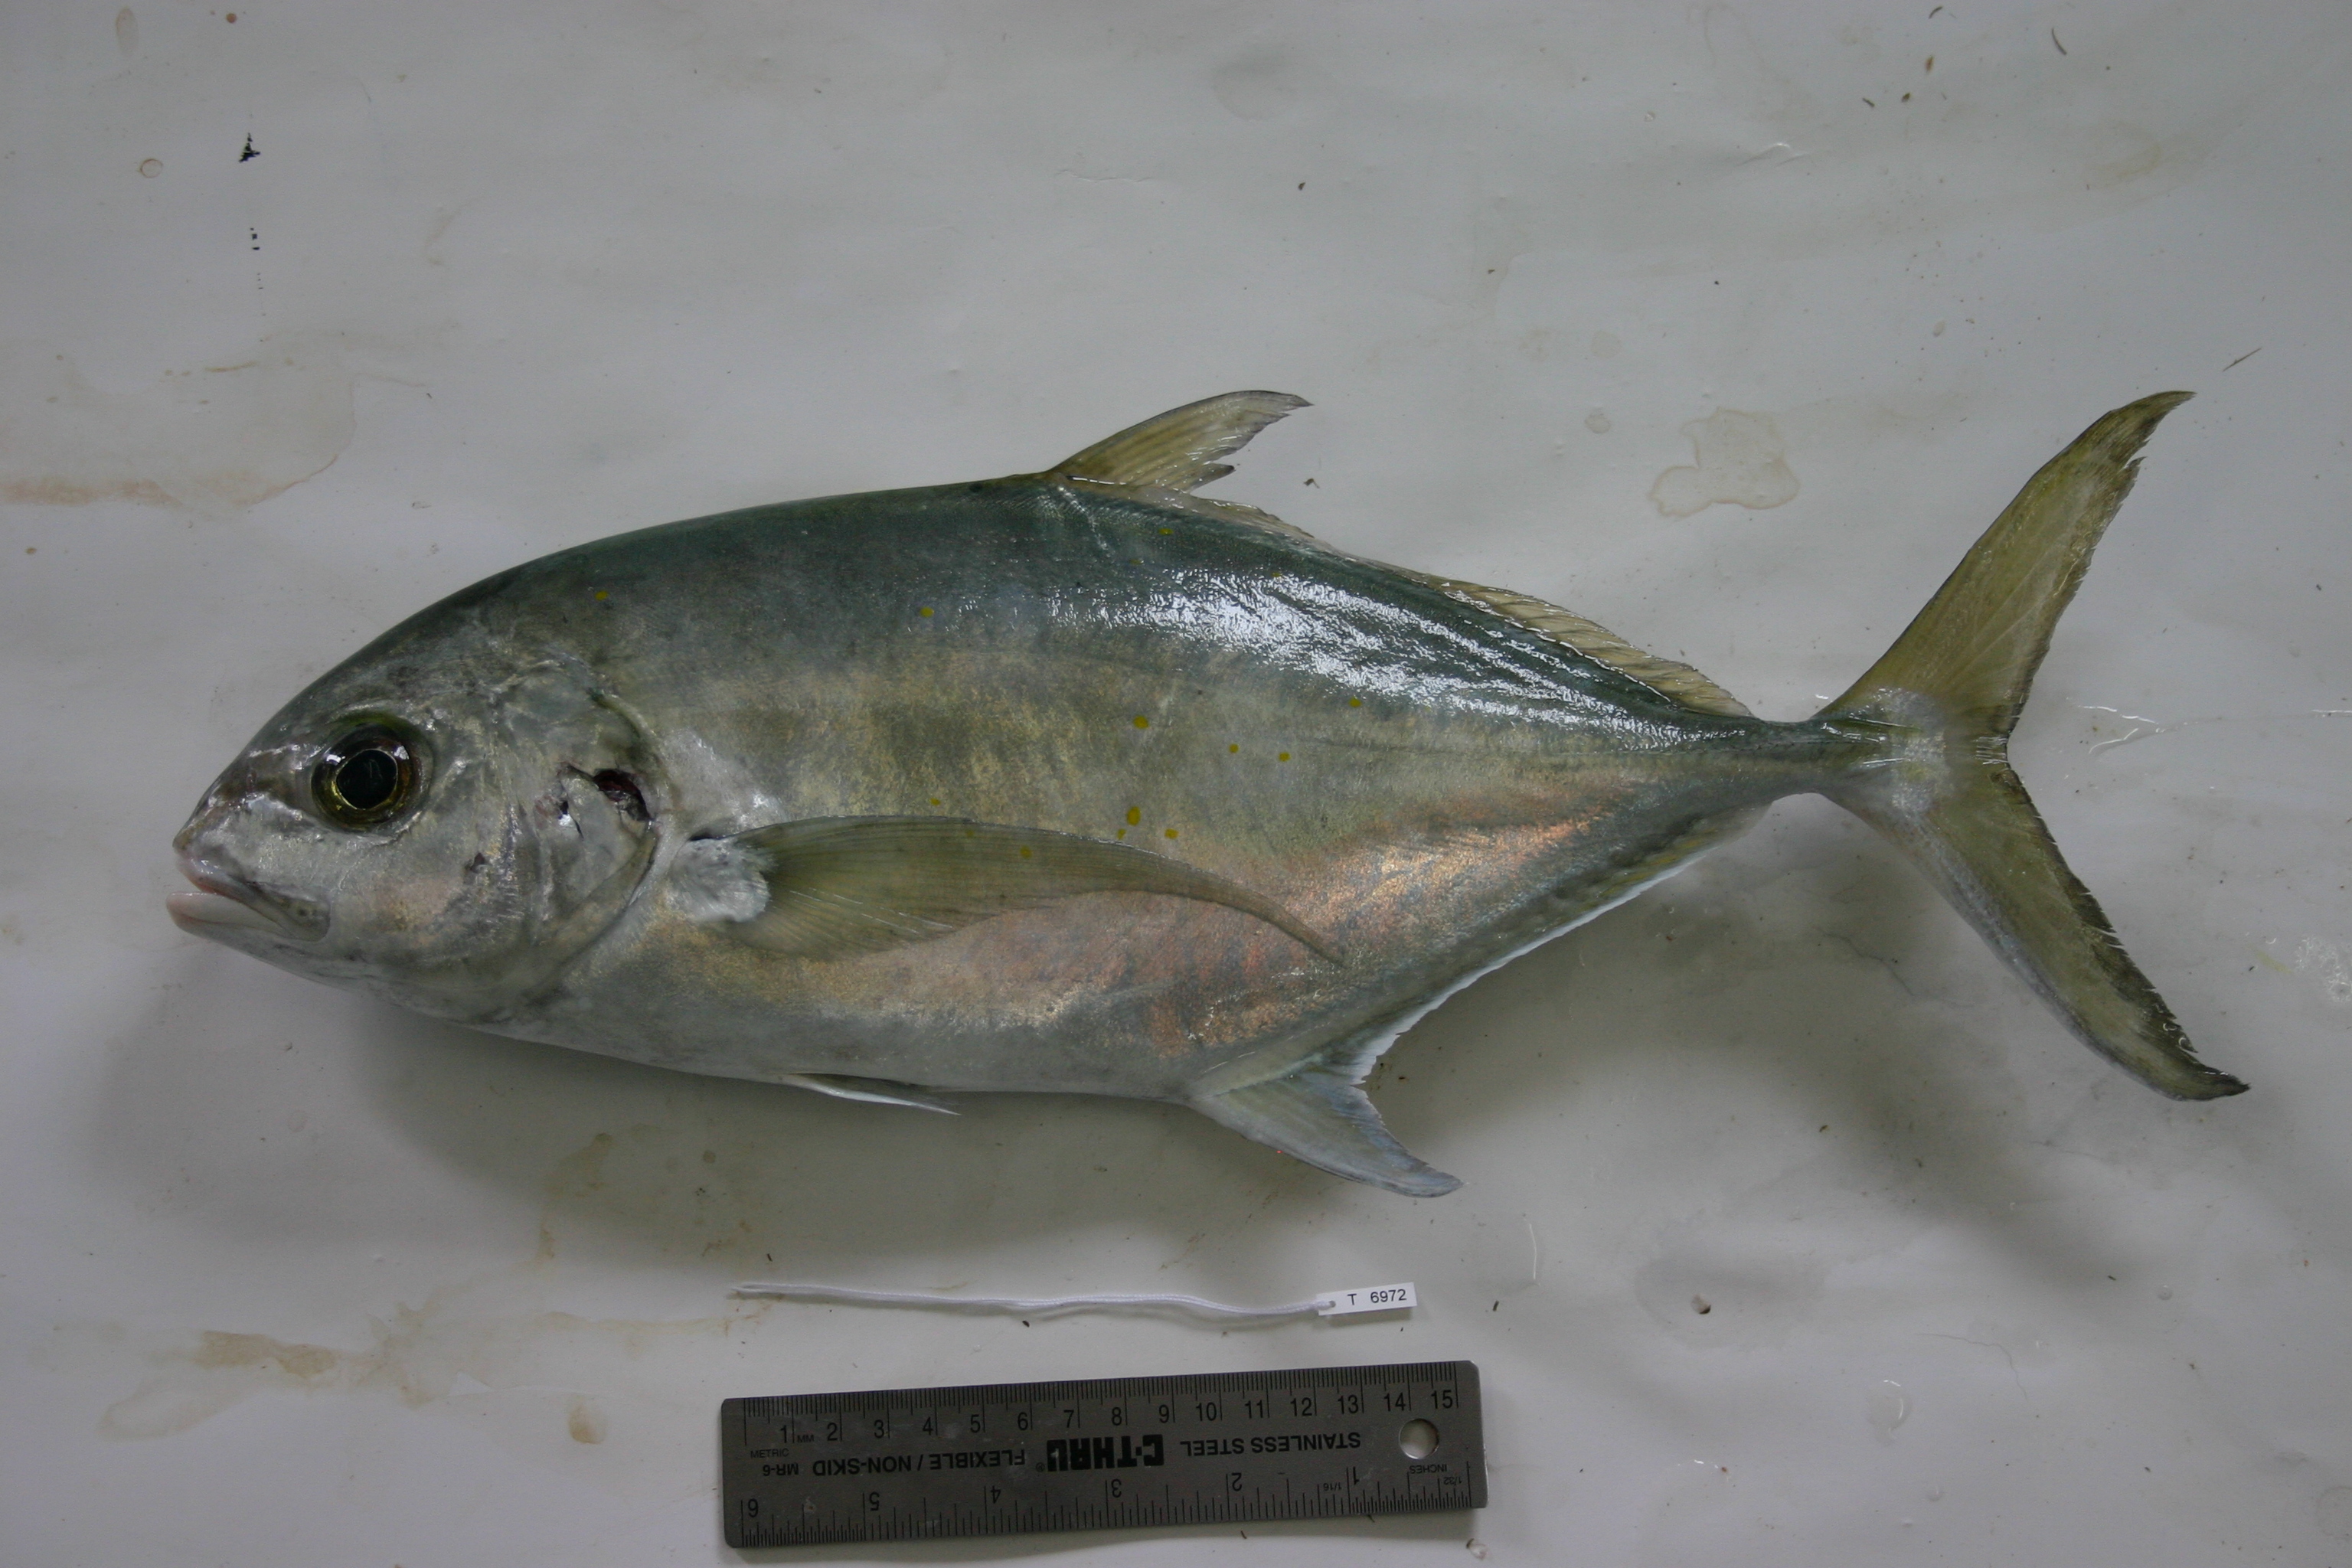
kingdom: Animalia
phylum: Chordata
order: Perciformes
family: Carangidae
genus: Carangoides
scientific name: Carangoides ferdau
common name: Blue trevally
